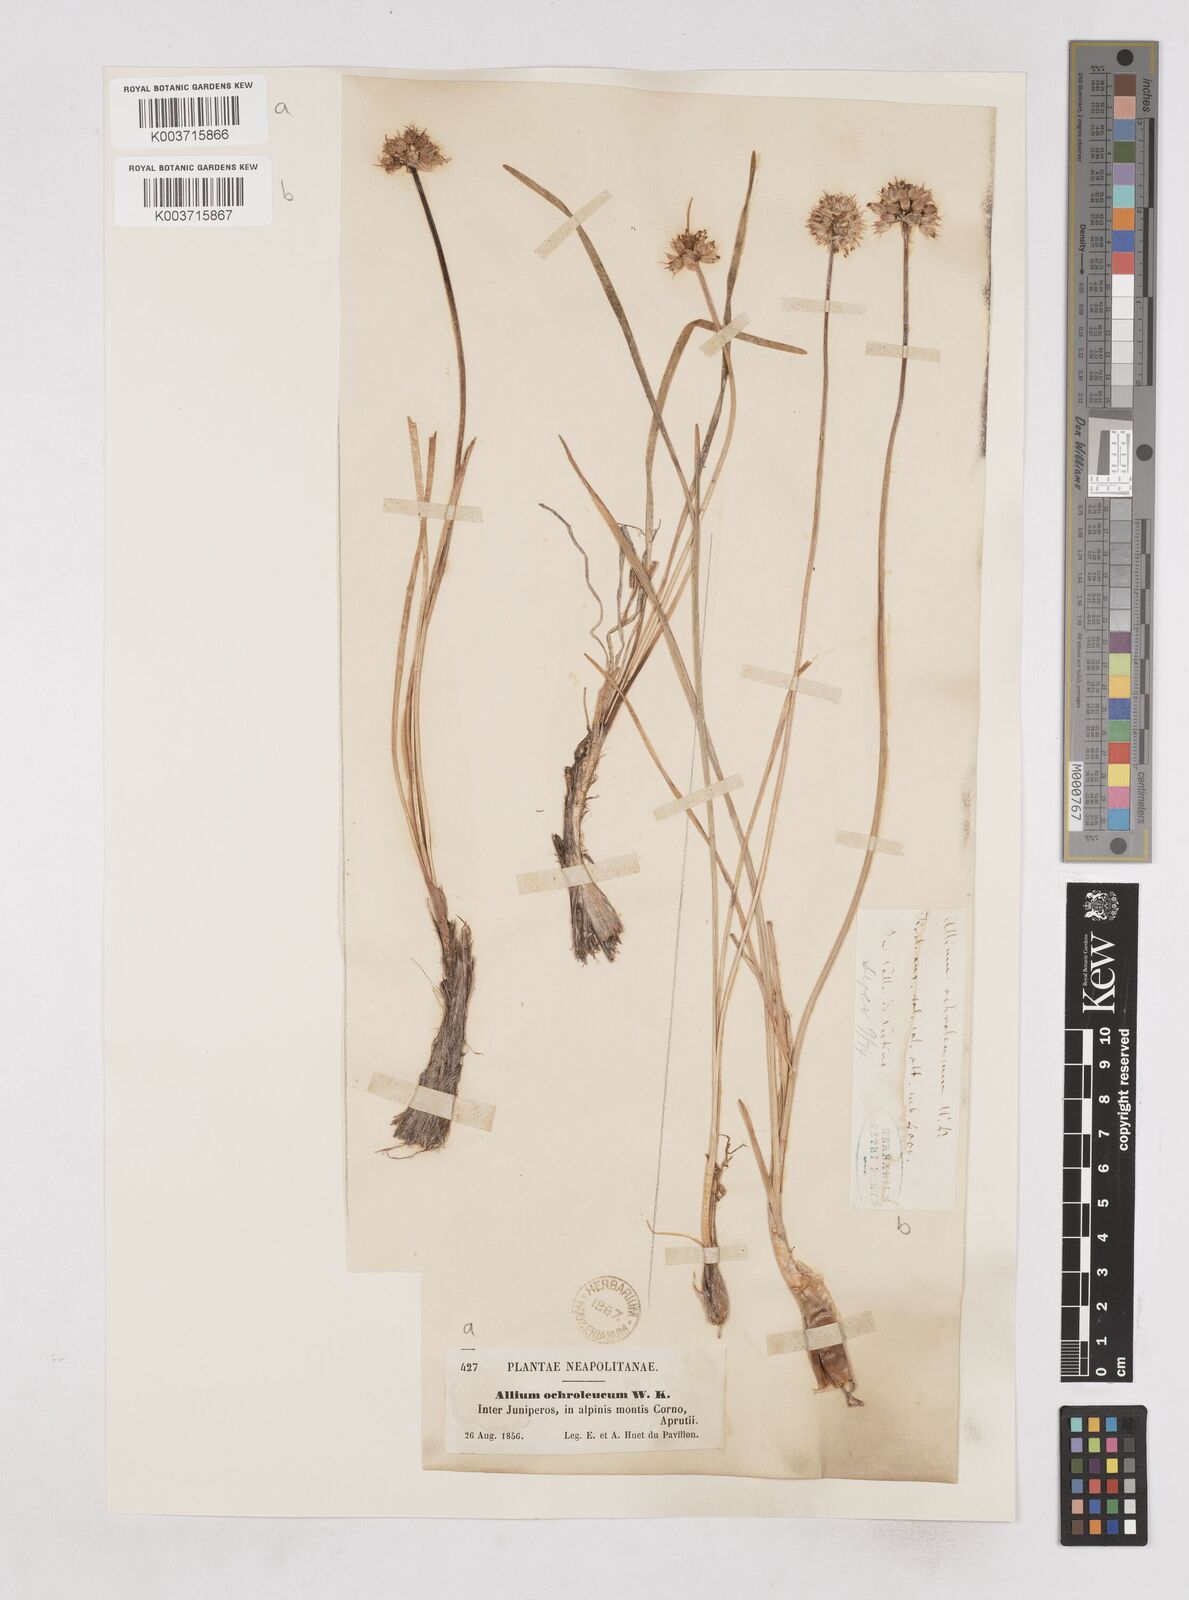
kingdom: Plantae
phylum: Tracheophyta
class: Liliopsida
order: Asparagales
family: Amaryllidaceae
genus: Allium
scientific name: Allium ericetorum
